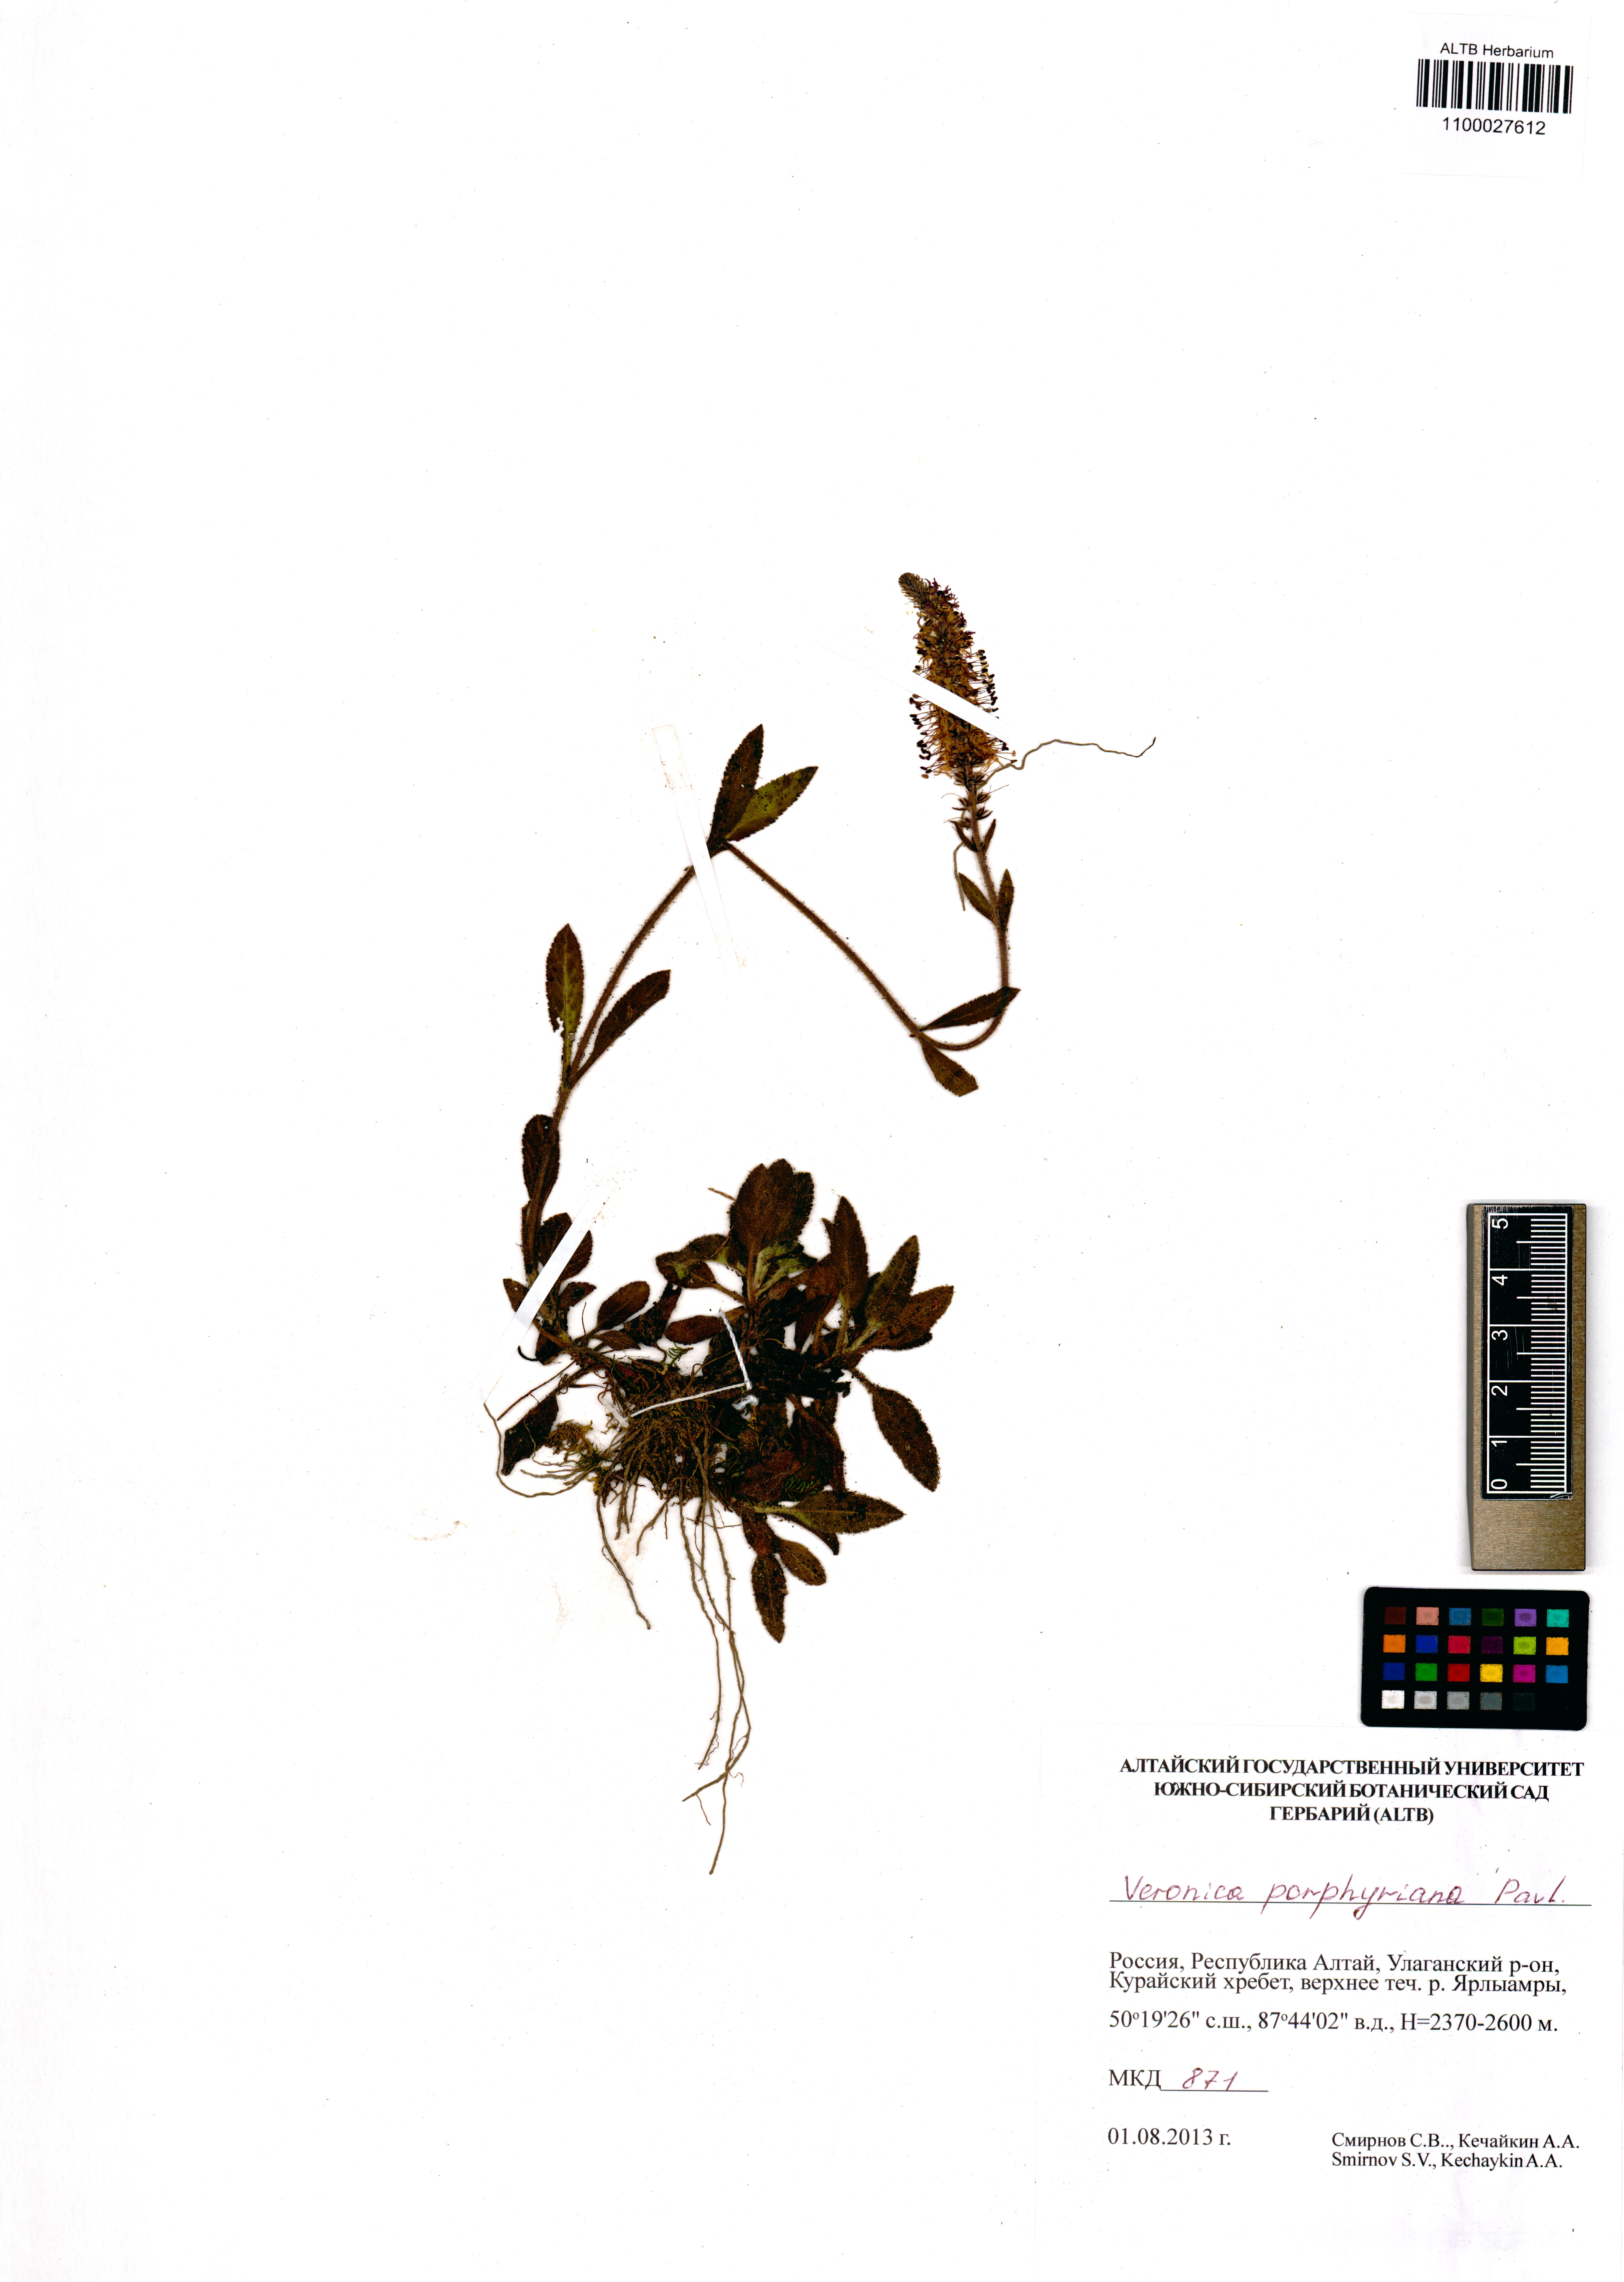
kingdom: Plantae
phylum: Tracheophyta
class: Magnoliopsida
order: Lamiales
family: Plantaginaceae
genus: Veronica
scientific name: Veronica porphyriana
